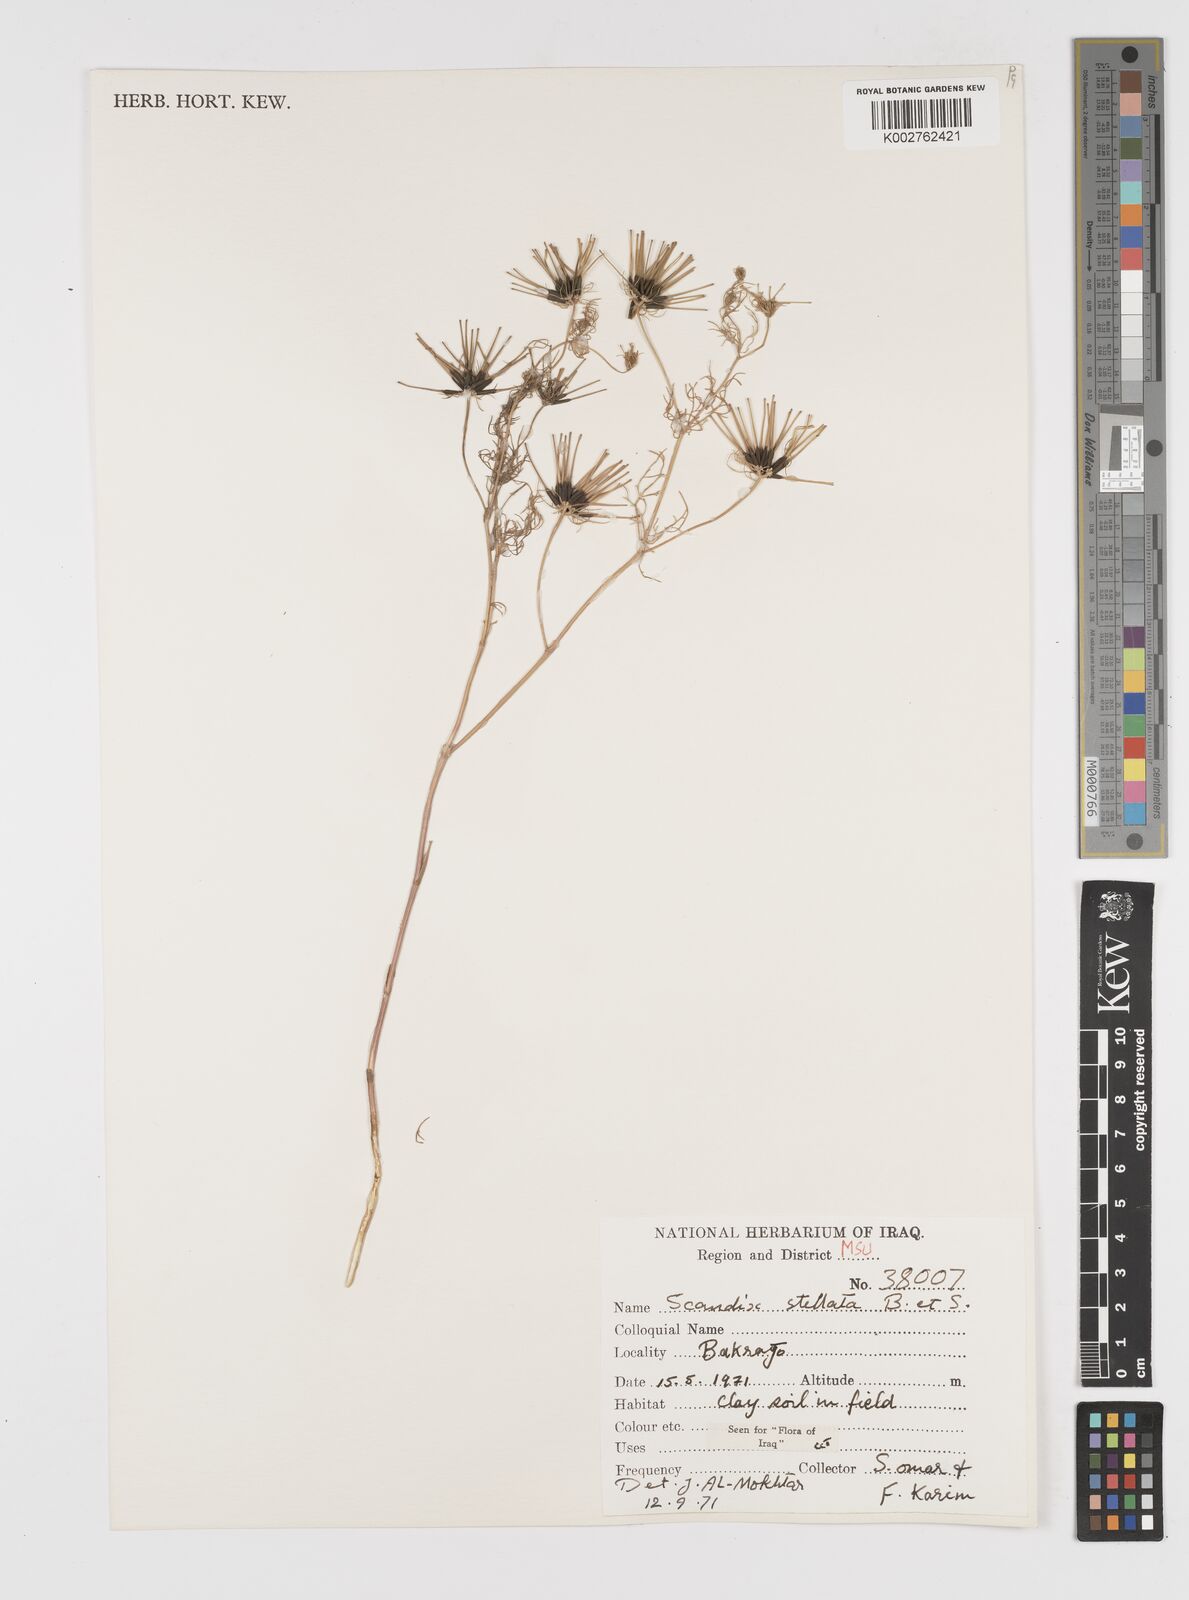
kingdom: Plantae
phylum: Tracheophyta
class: Magnoliopsida
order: Apiales
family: Apiaceae
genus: Scandix
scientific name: Scandix stellata
